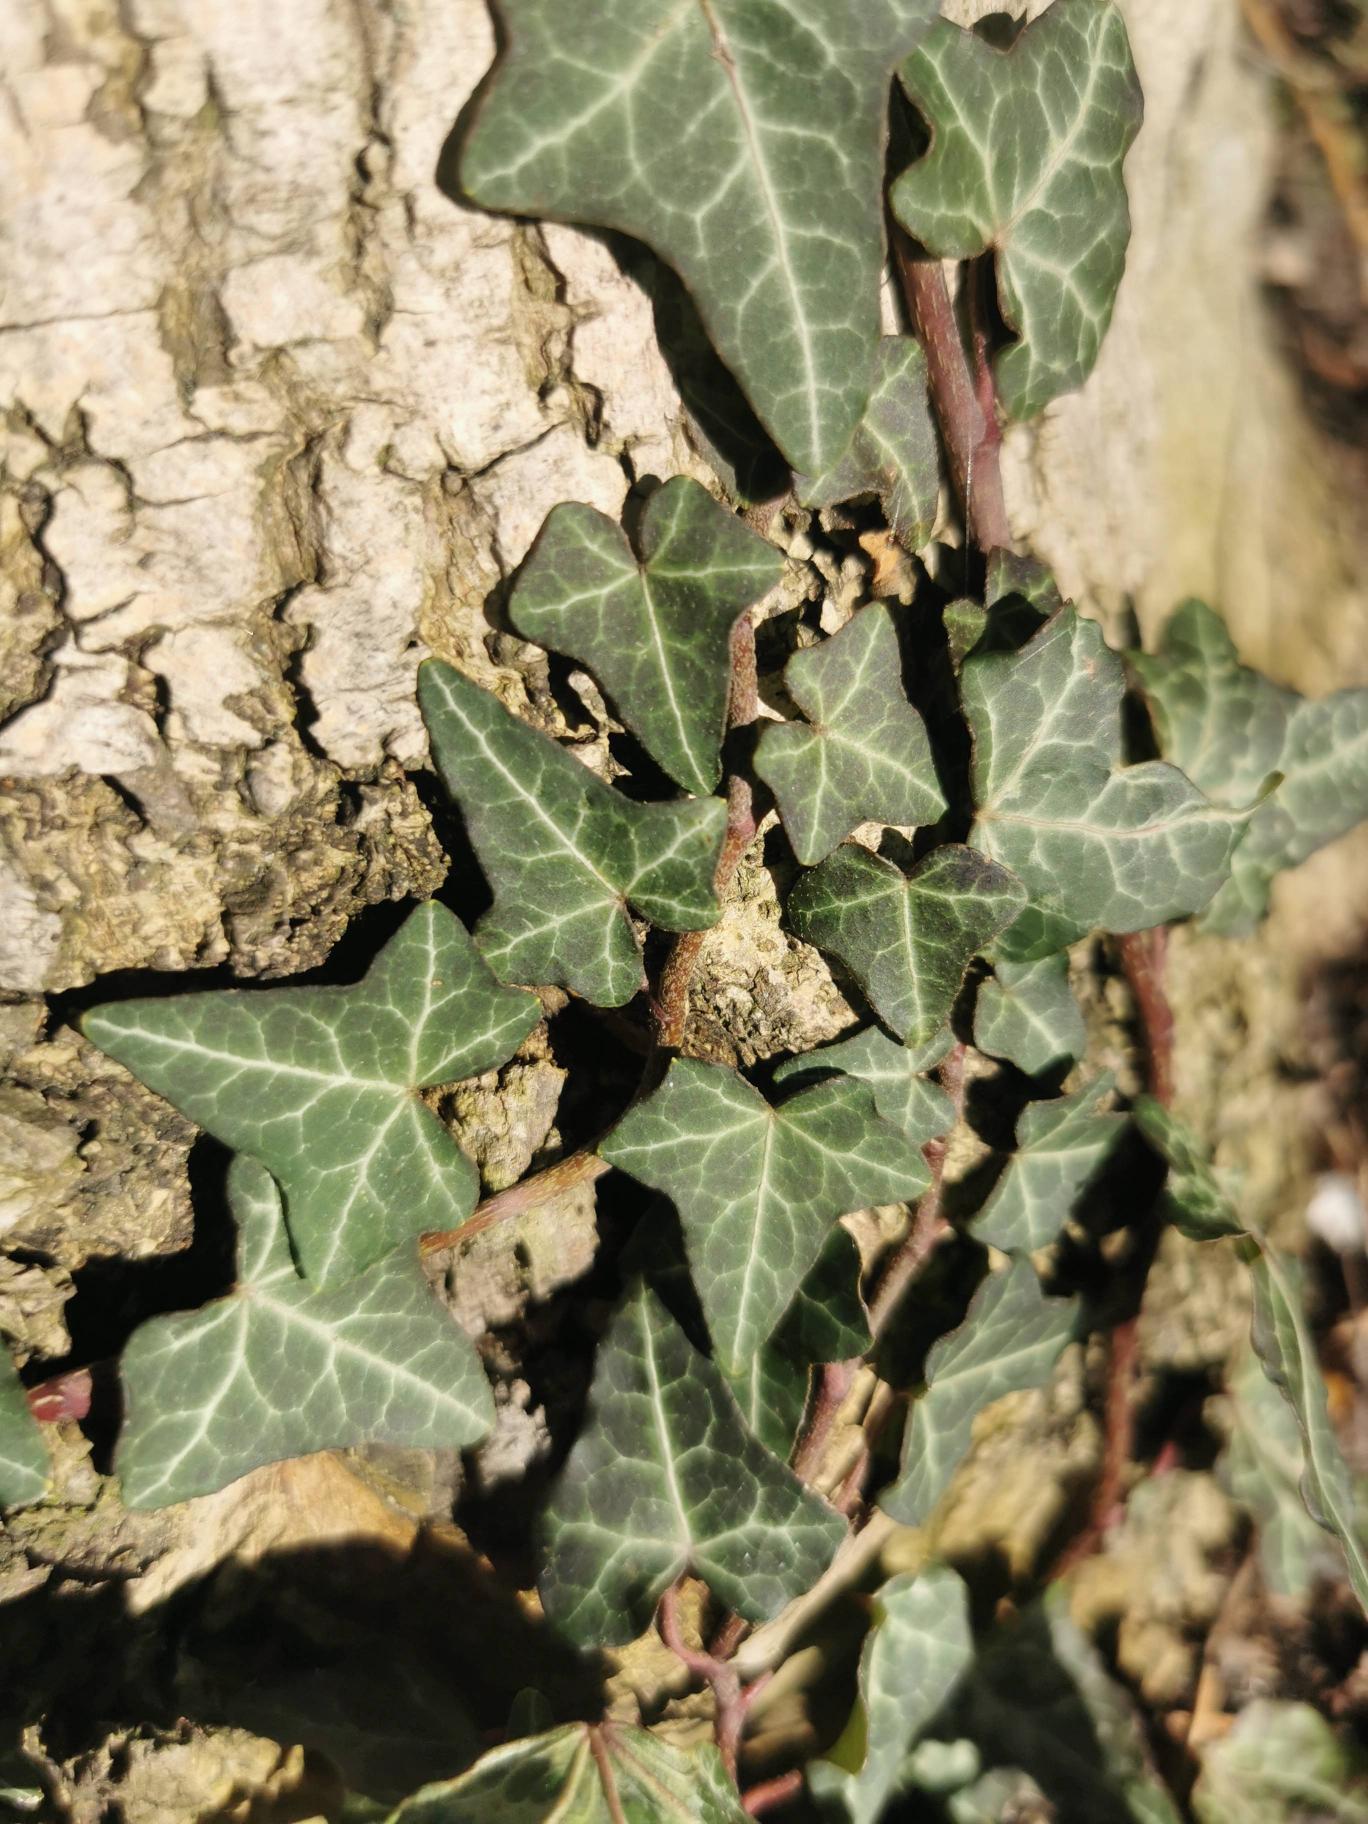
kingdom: Plantae
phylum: Tracheophyta
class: Magnoliopsida
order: Apiales
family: Araliaceae
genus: Hedera
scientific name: Hedera helix
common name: Vedbend
